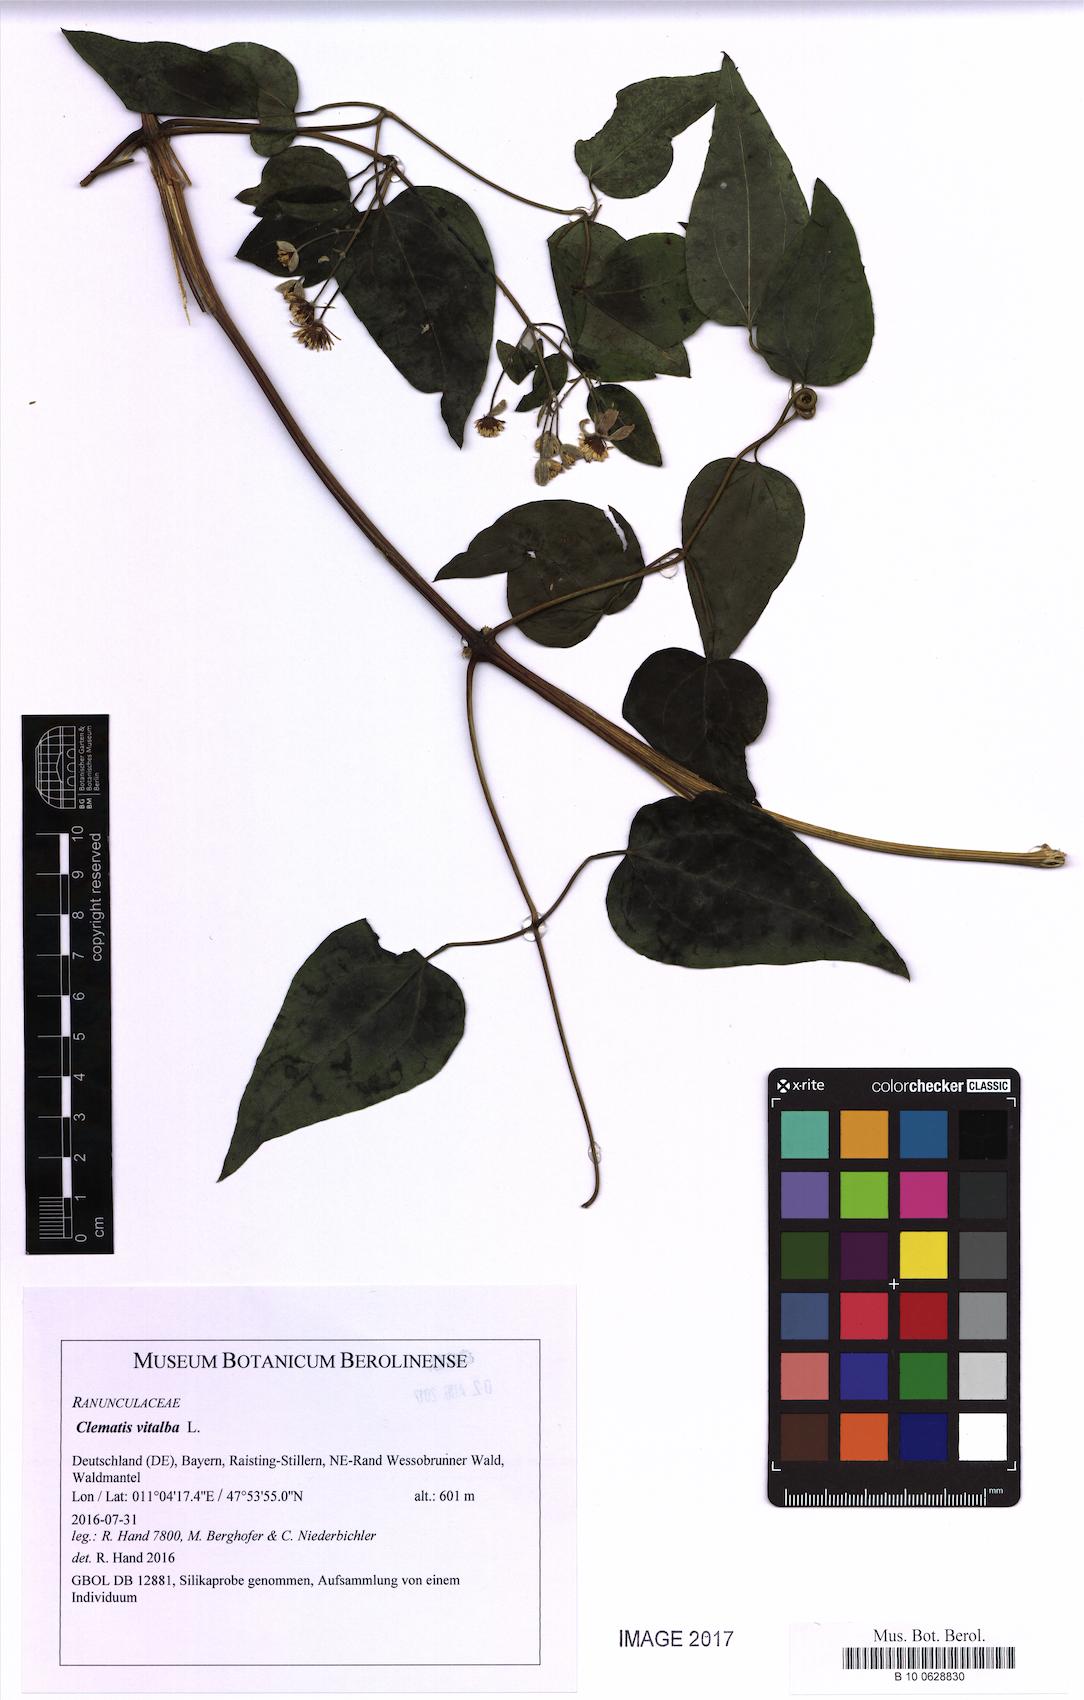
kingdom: Plantae
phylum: Tracheophyta
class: Magnoliopsida
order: Ranunculales
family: Ranunculaceae
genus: Clematis
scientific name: Clematis vitalba
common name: Evergreen clematis
